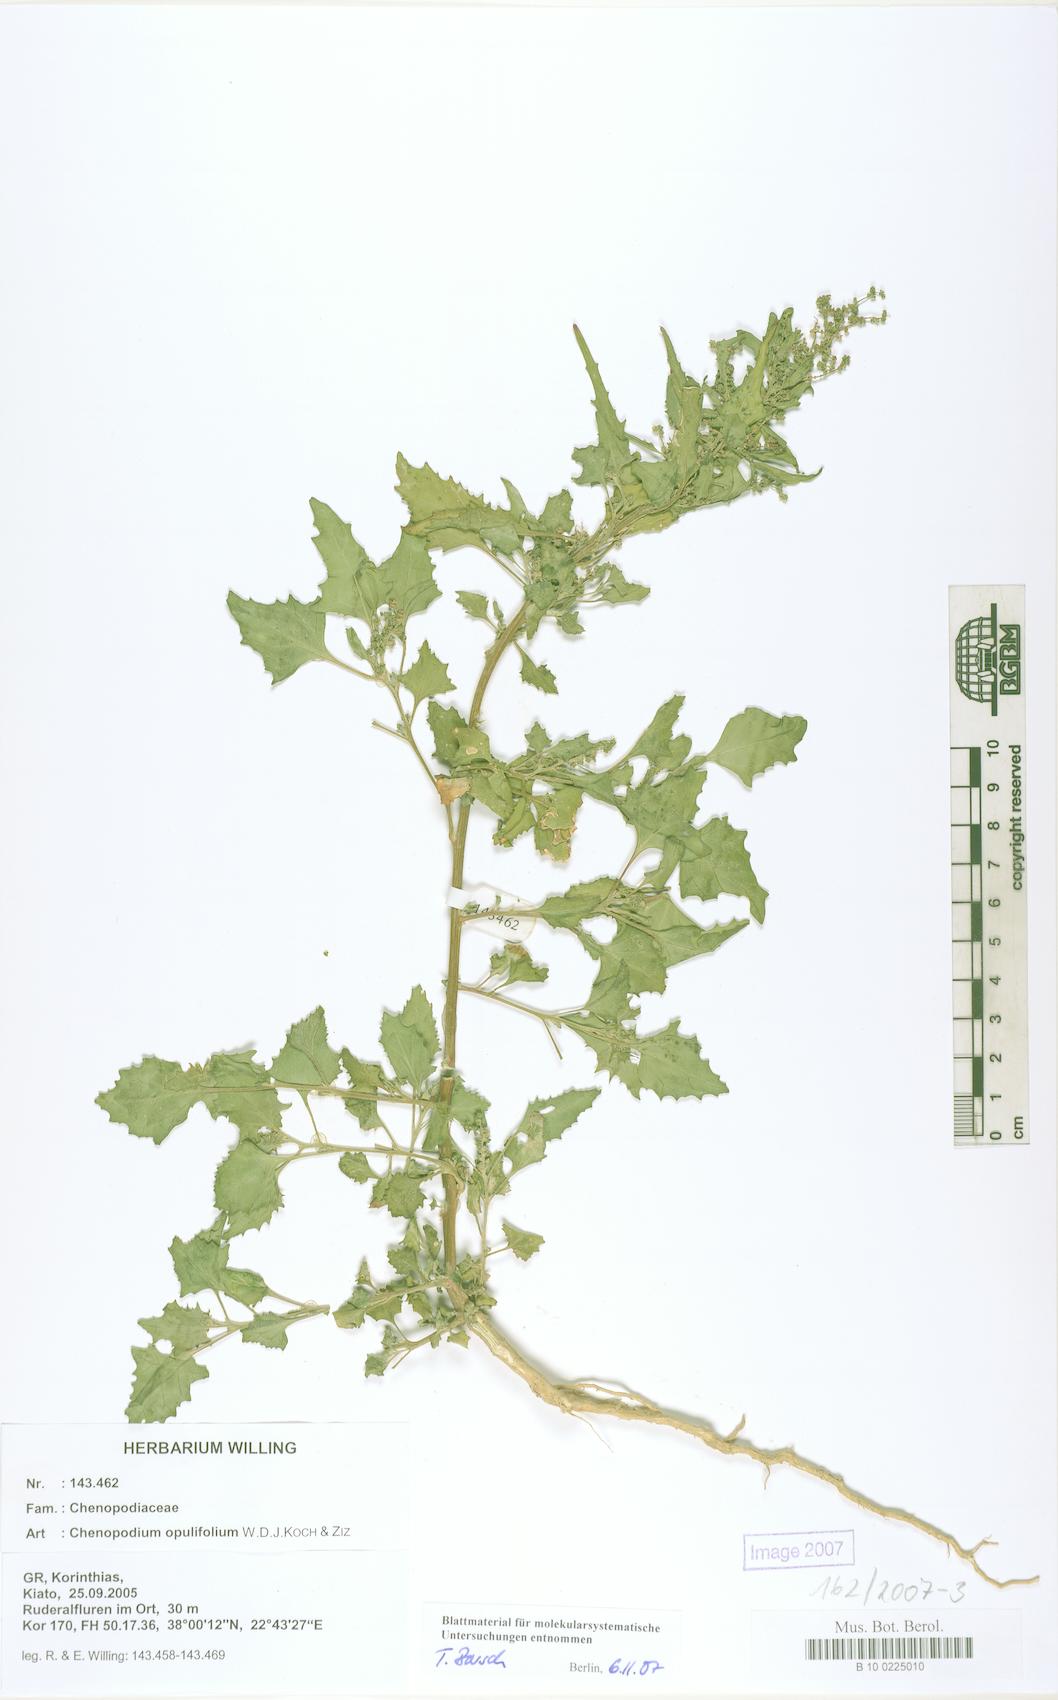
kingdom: Plantae
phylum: Tracheophyta
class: Magnoliopsida
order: Caryophyllales
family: Amaranthaceae
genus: Chenopodium
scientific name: Chenopodium opulifolium
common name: Grey goosefoot
